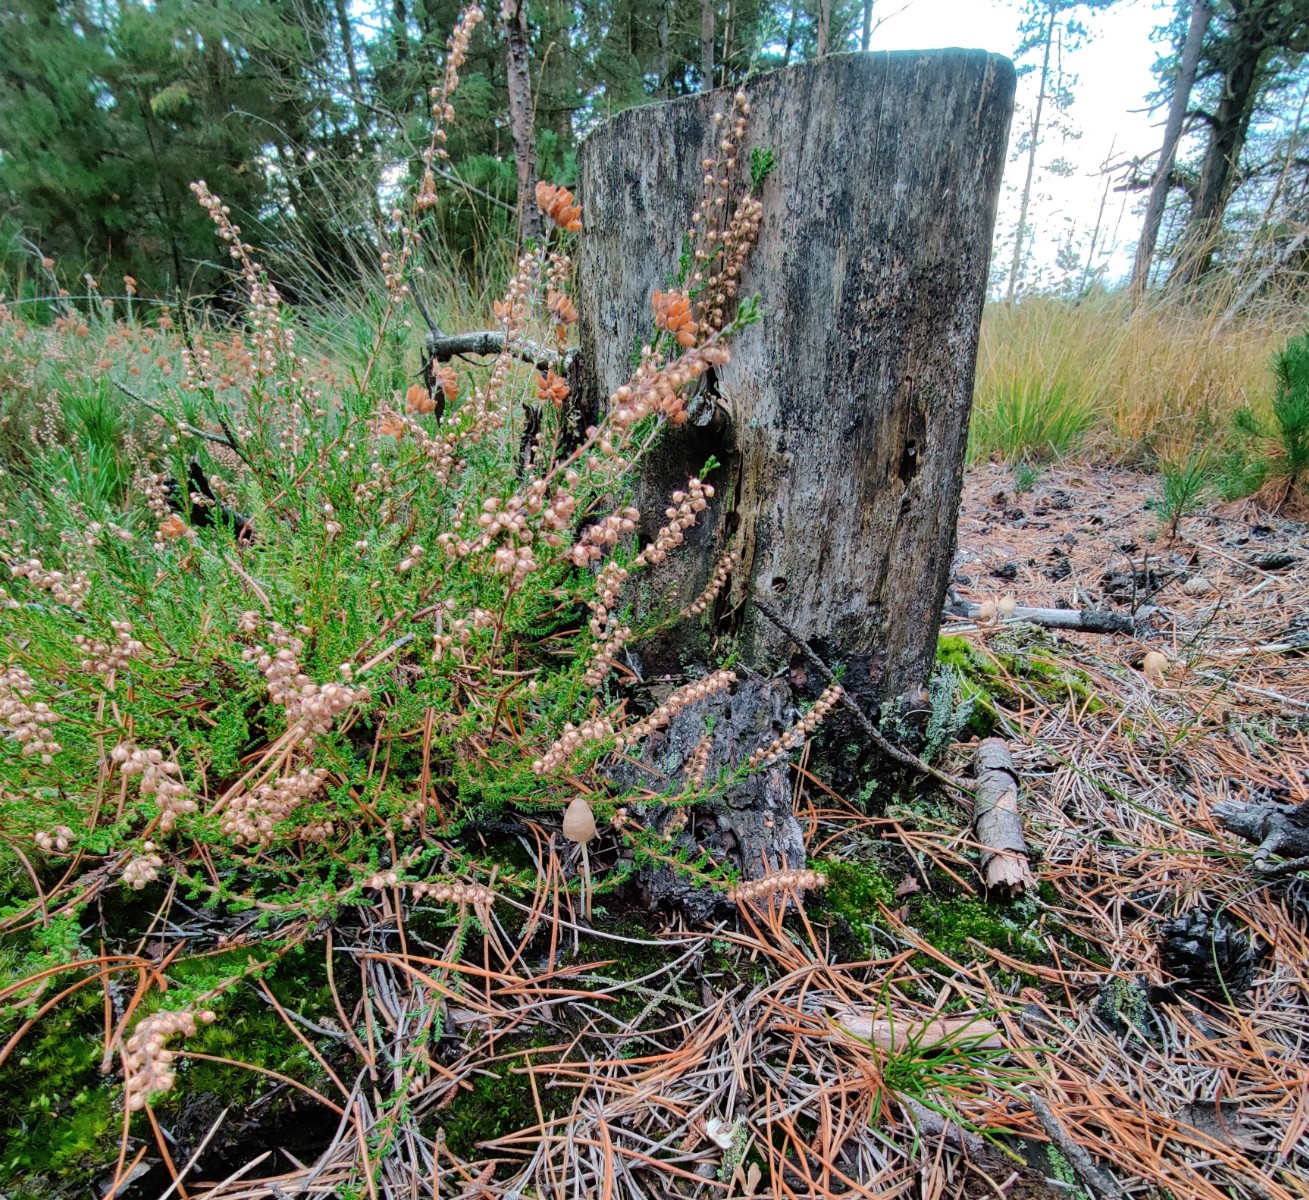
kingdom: Fungi
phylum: Basidiomycota
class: Agaricomycetes
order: Agaricales
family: Mycenaceae
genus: Mycena
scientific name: Mycena epipterygia
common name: gulstokket huesvamp
